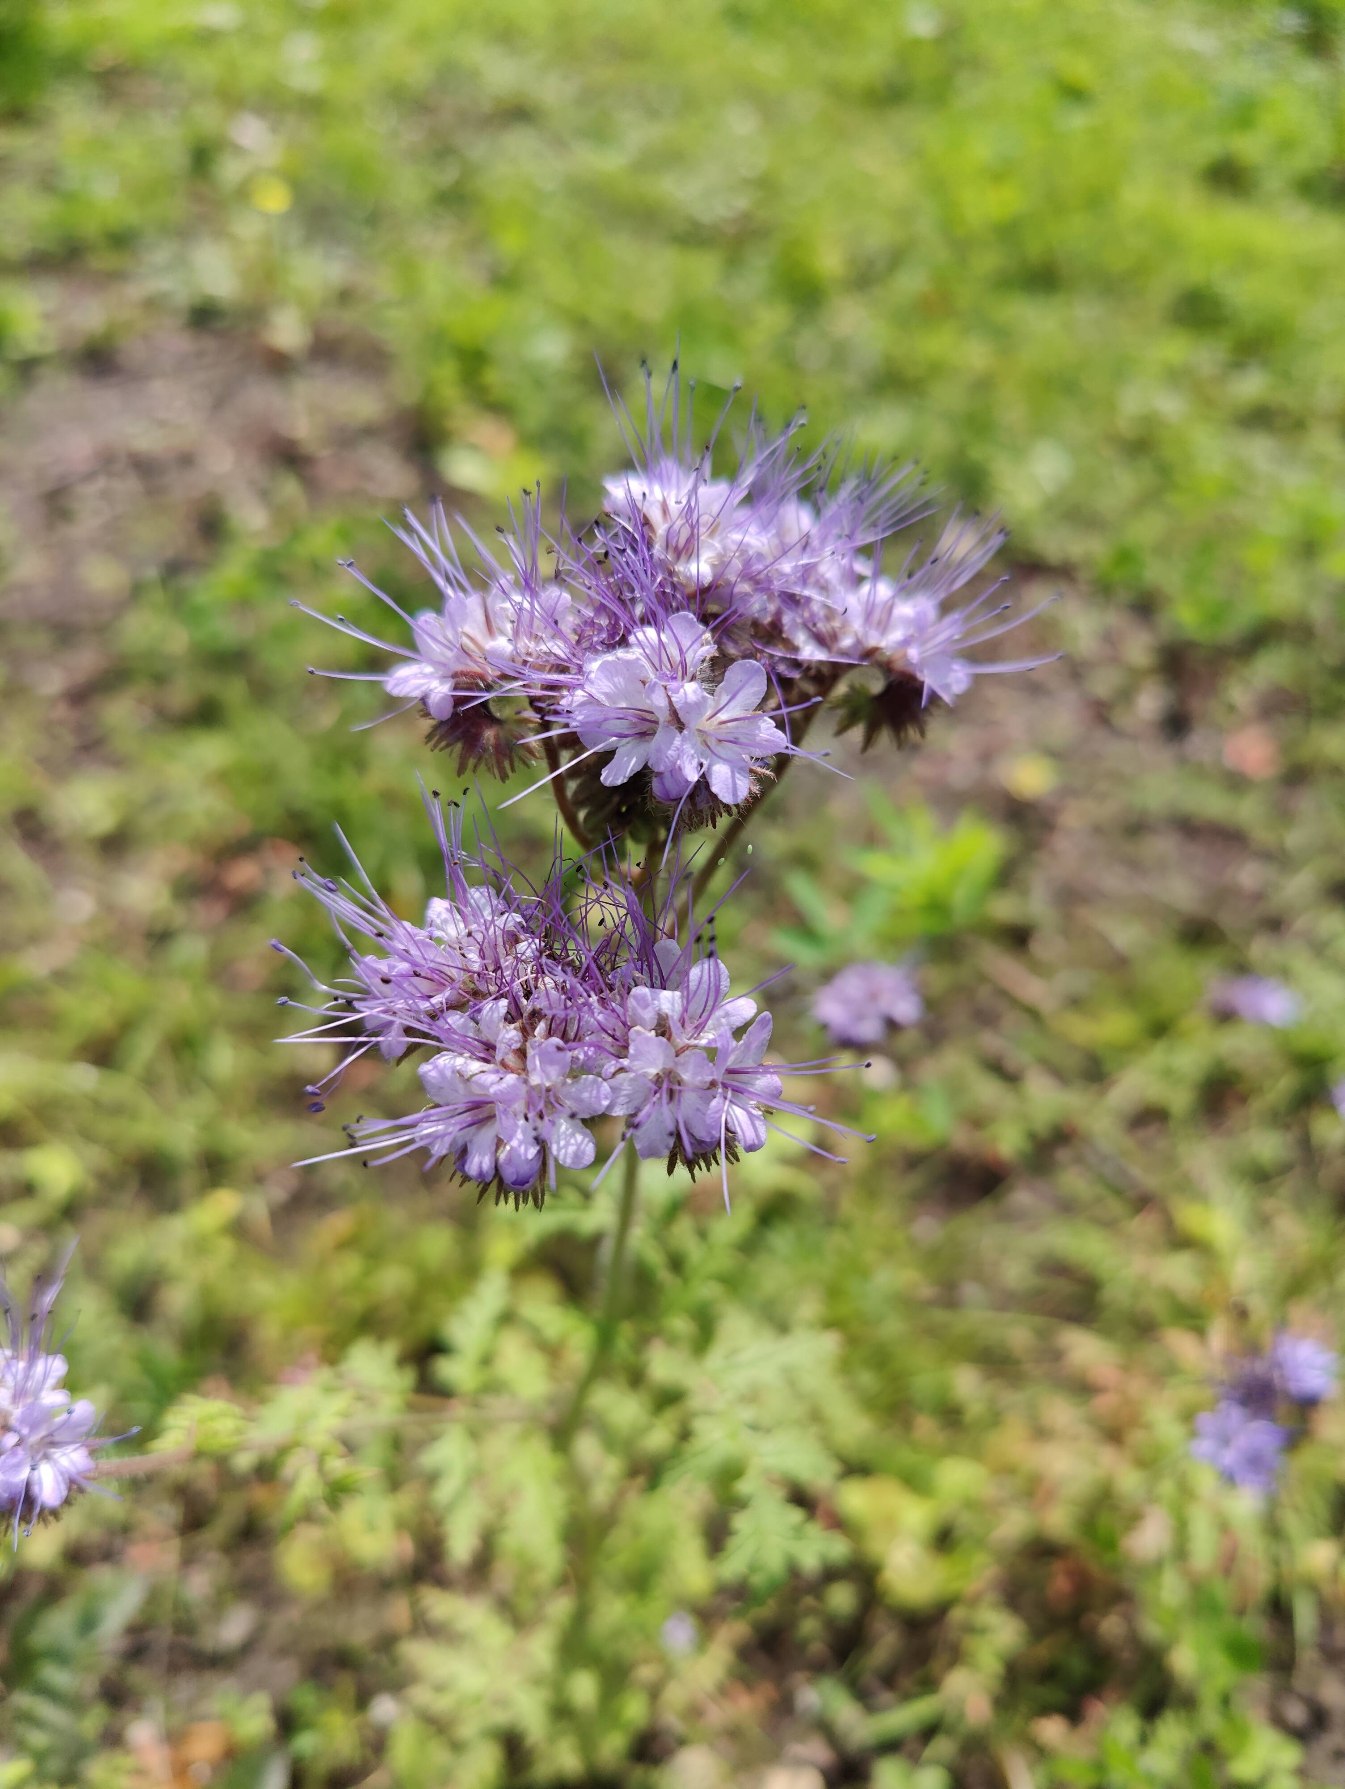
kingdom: Plantae
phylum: Tracheophyta
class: Magnoliopsida
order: Boraginales
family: Hydrophyllaceae
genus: Phacelia
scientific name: Phacelia tanacetifolia
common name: Honningurt
